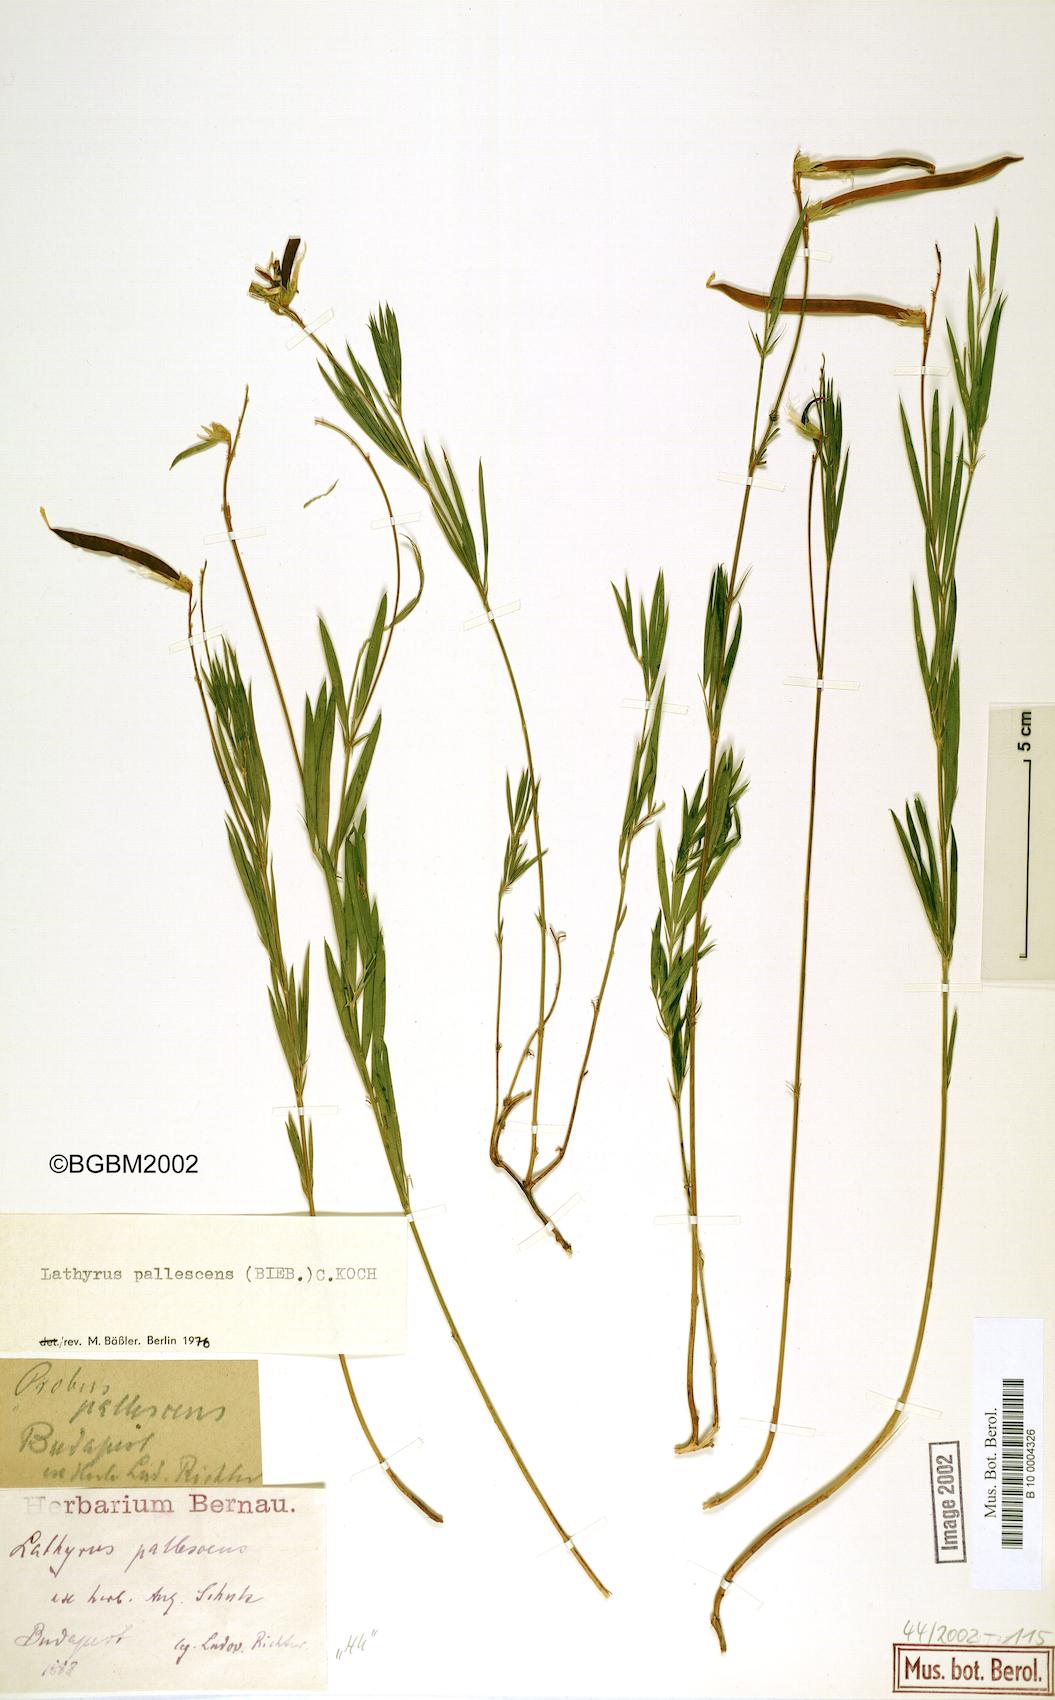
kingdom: Plantae
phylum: Tracheophyta
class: Magnoliopsida
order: Fabales
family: Fabaceae
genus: Lathyrus
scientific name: Lathyrus pallescens
